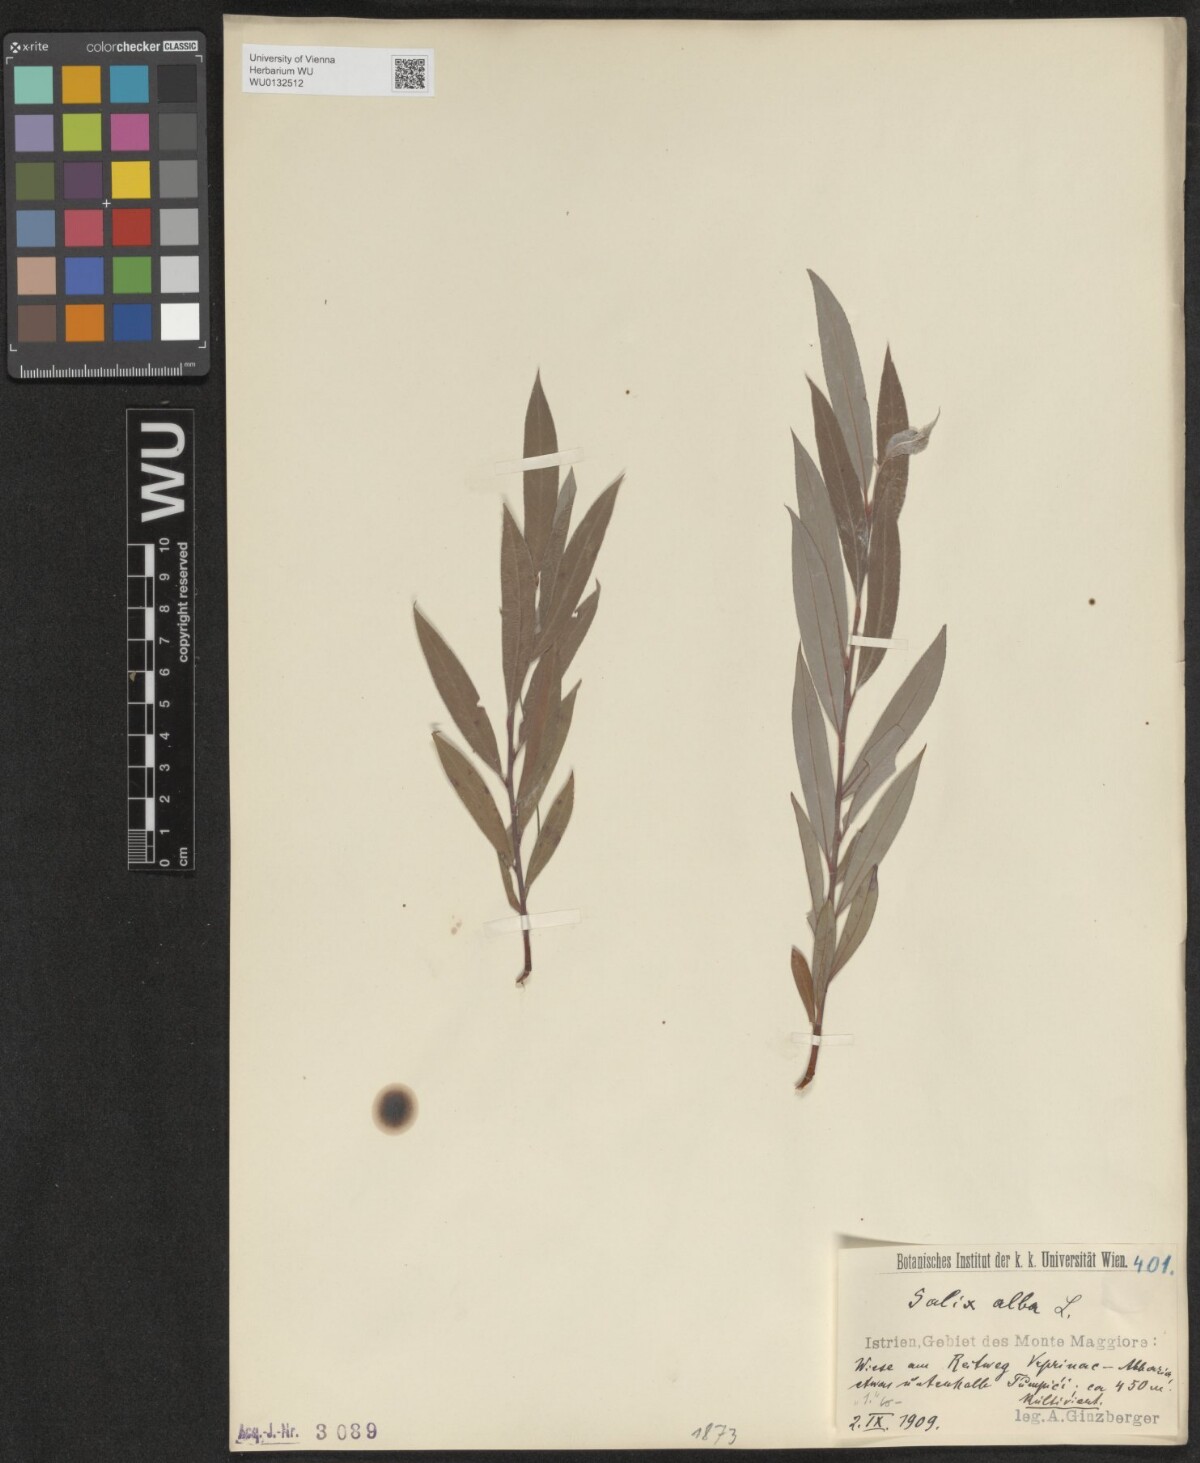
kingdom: Plantae
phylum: Tracheophyta
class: Magnoliopsida
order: Malpighiales
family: Salicaceae
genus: Salix
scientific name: Salix alba
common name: White willow
